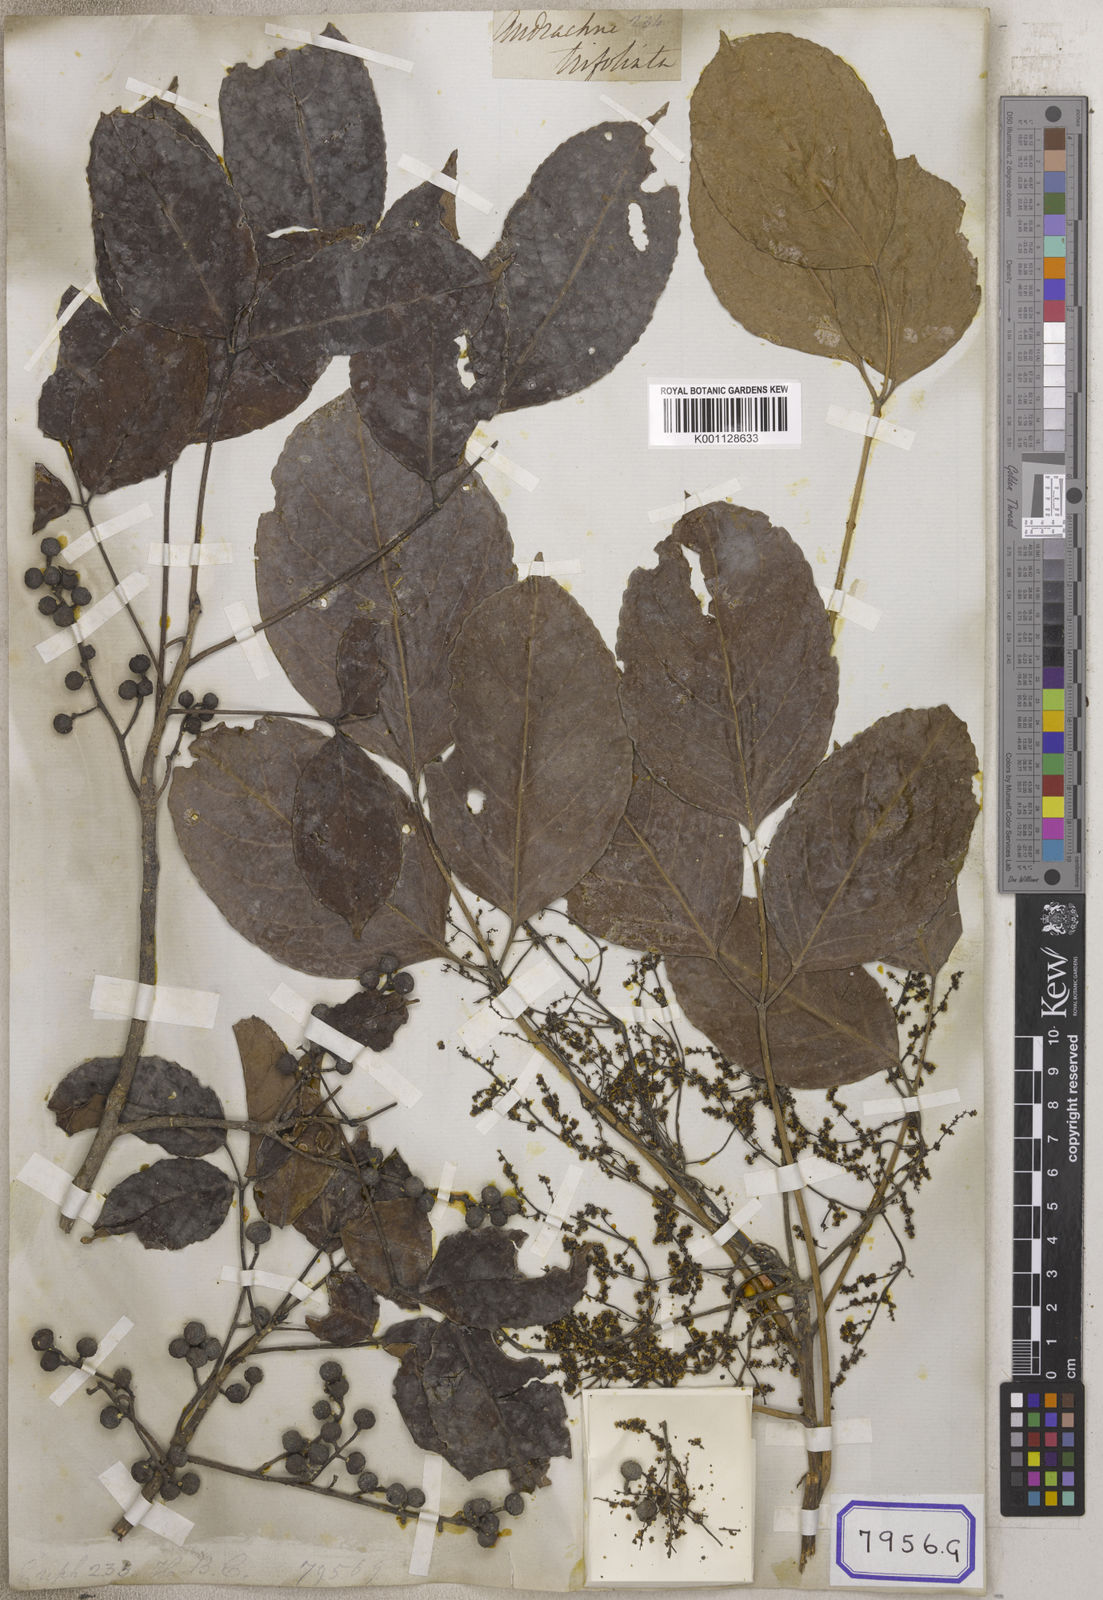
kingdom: Plantae
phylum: Tracheophyta
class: Magnoliopsida
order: Malpighiales
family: Euphorbiaceae
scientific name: Euphorbiaceae
